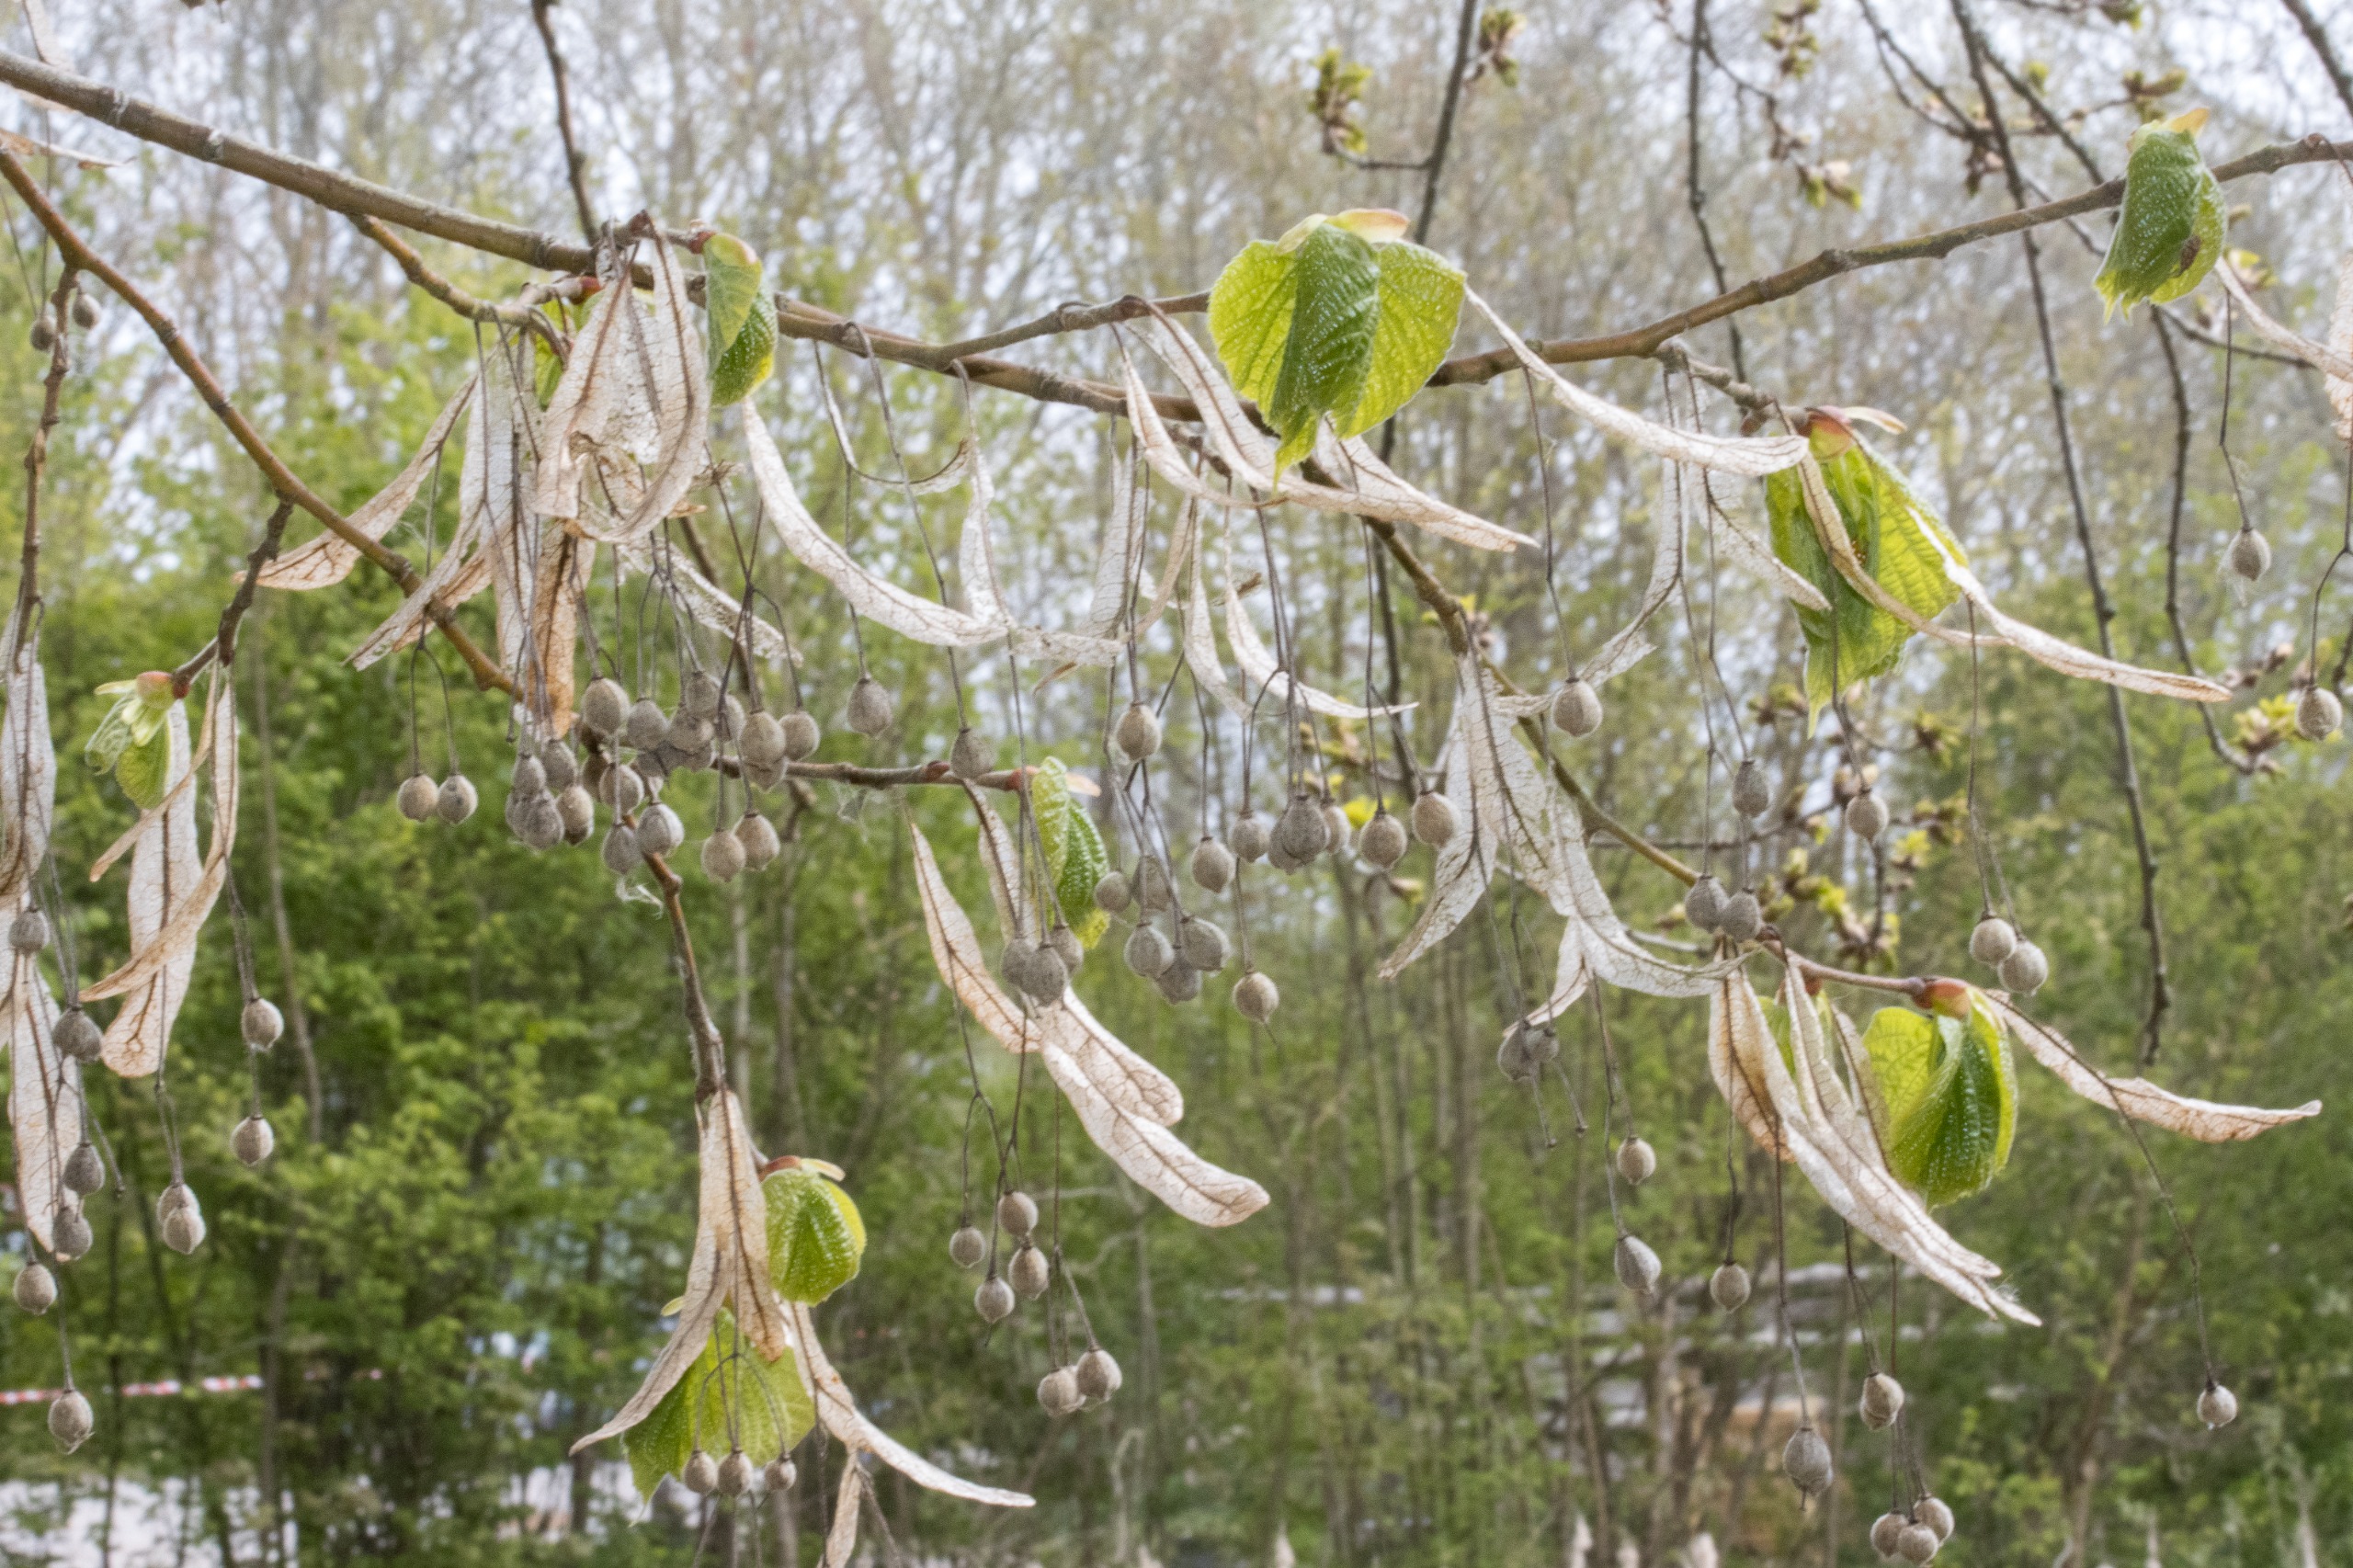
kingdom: Plantae
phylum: Tracheophyta
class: Magnoliopsida
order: Malvales
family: Malvaceae
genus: Tilia
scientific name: Tilia platyphyllos
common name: Storbladet lind
